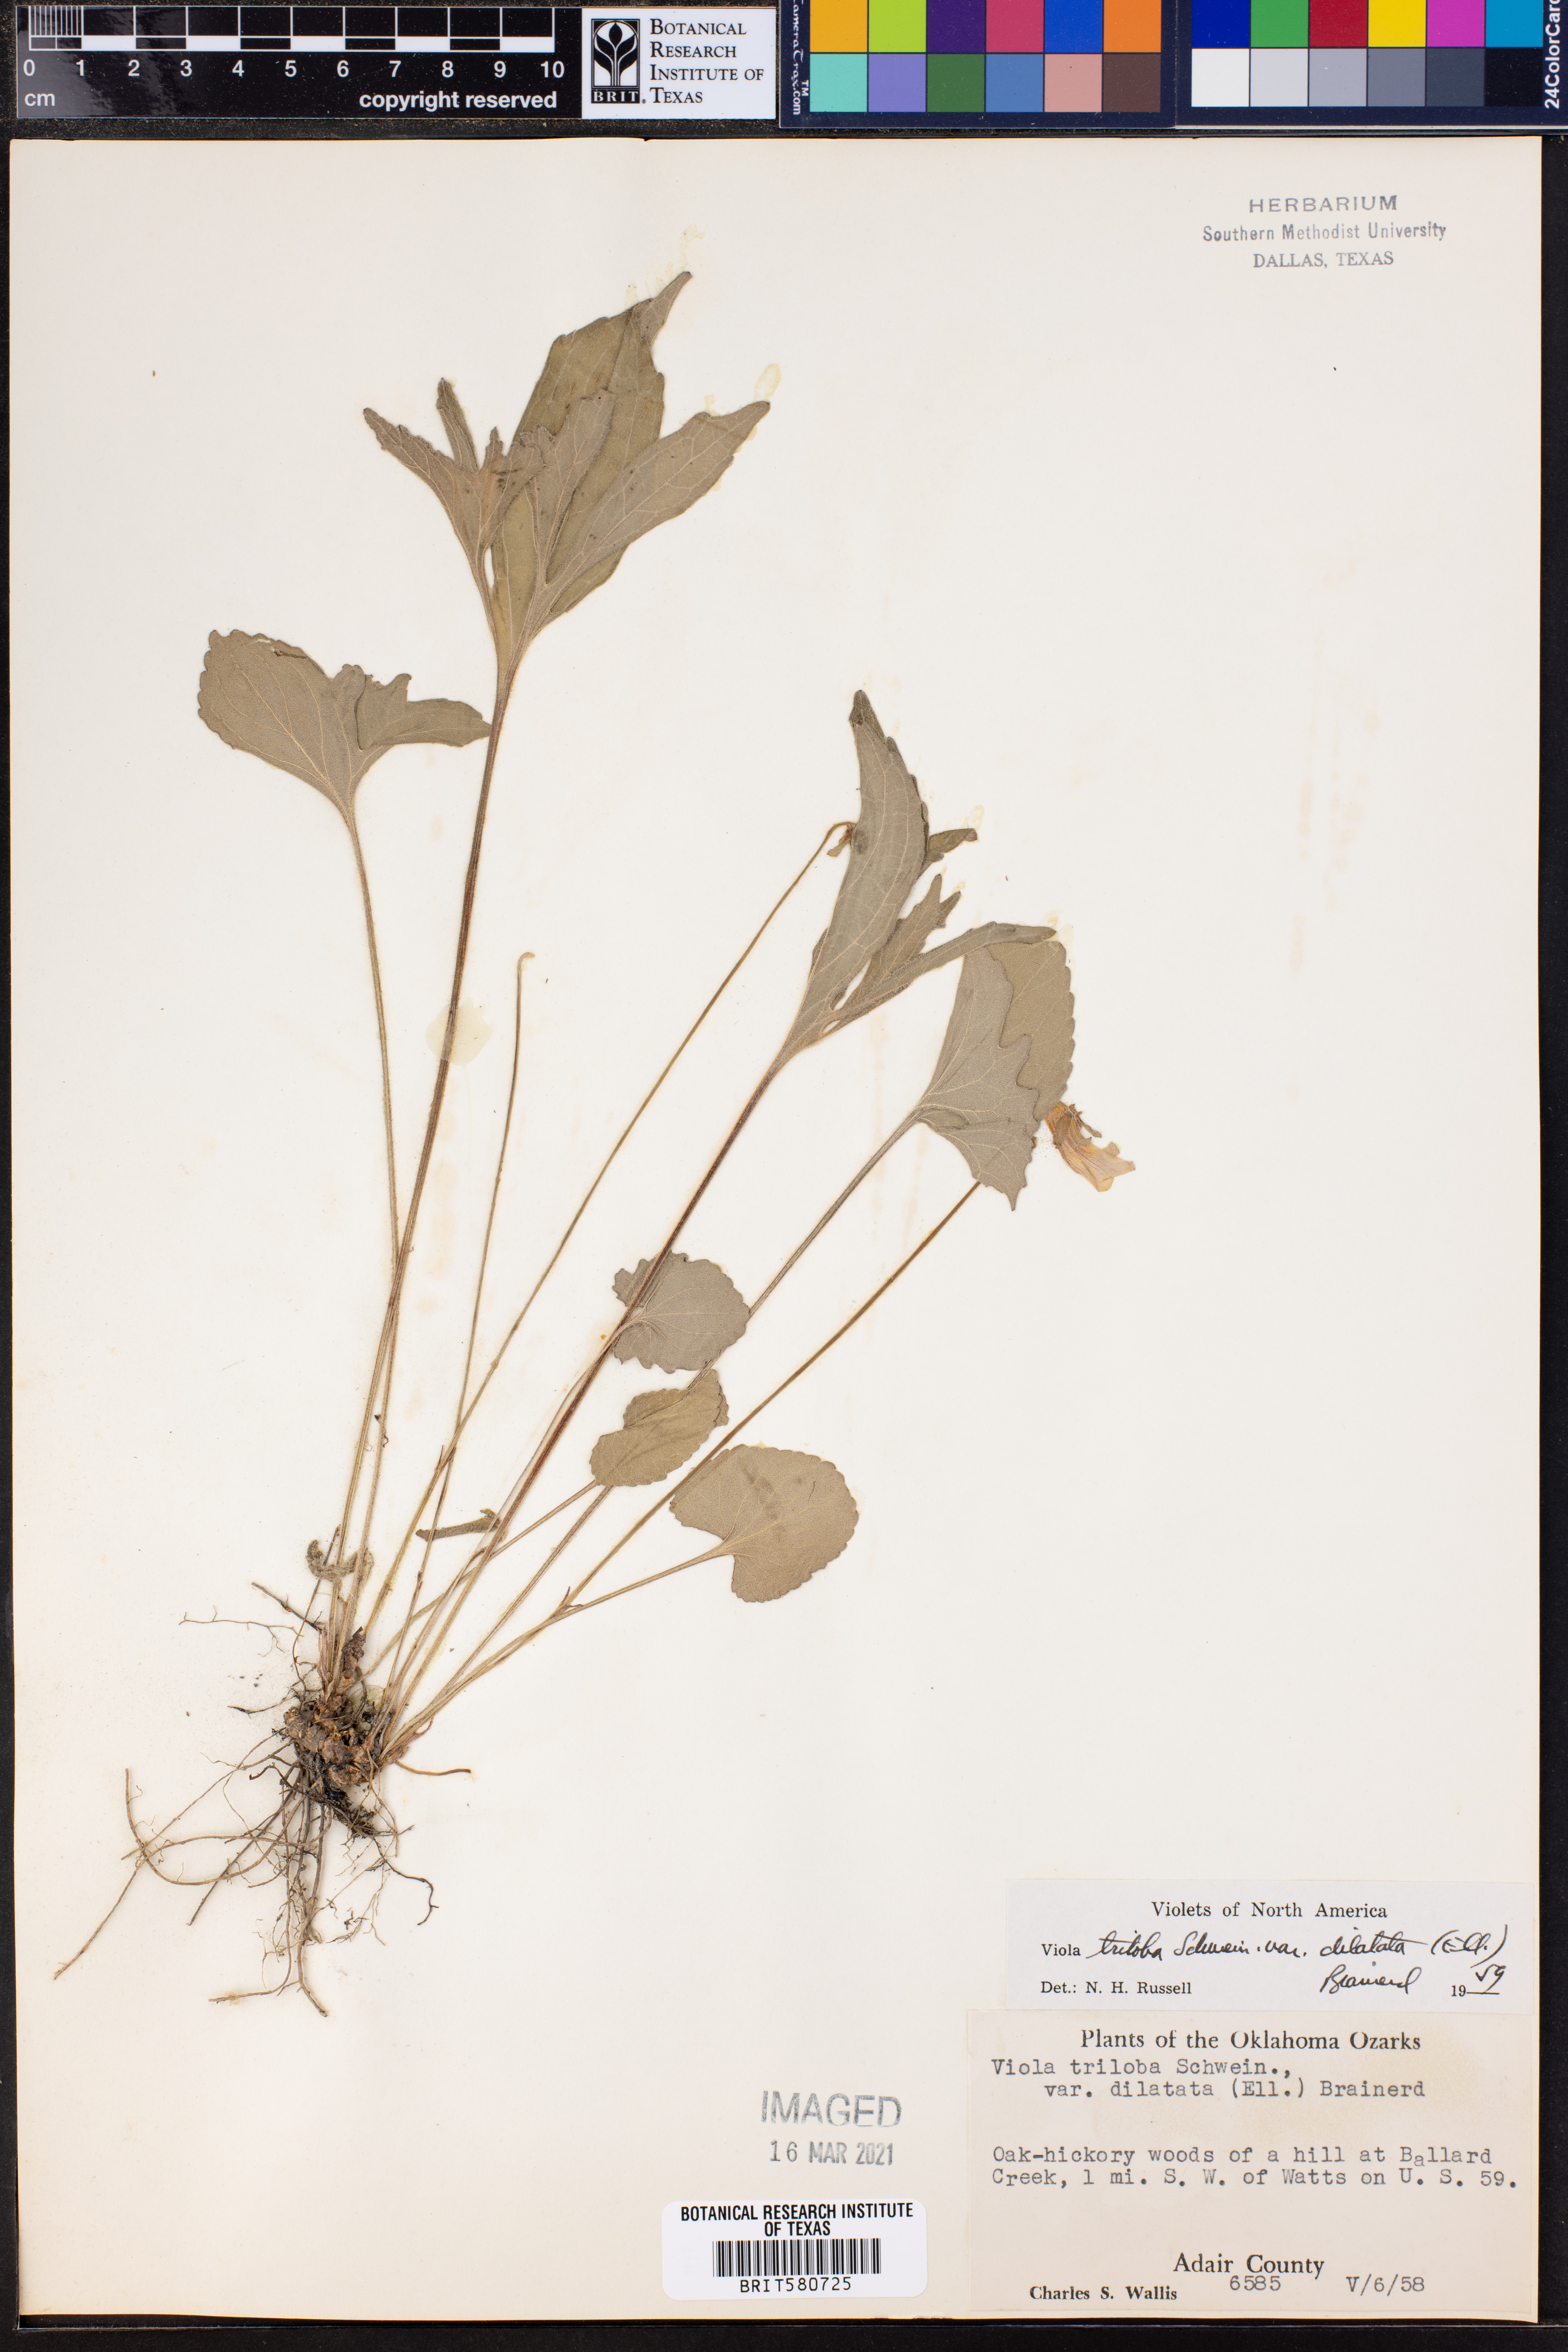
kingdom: Plantae
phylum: Tracheophyta
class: Magnoliopsida
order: Malpighiales
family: Violaceae
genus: Viola
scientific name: Viola palmata
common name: Early blue violet
